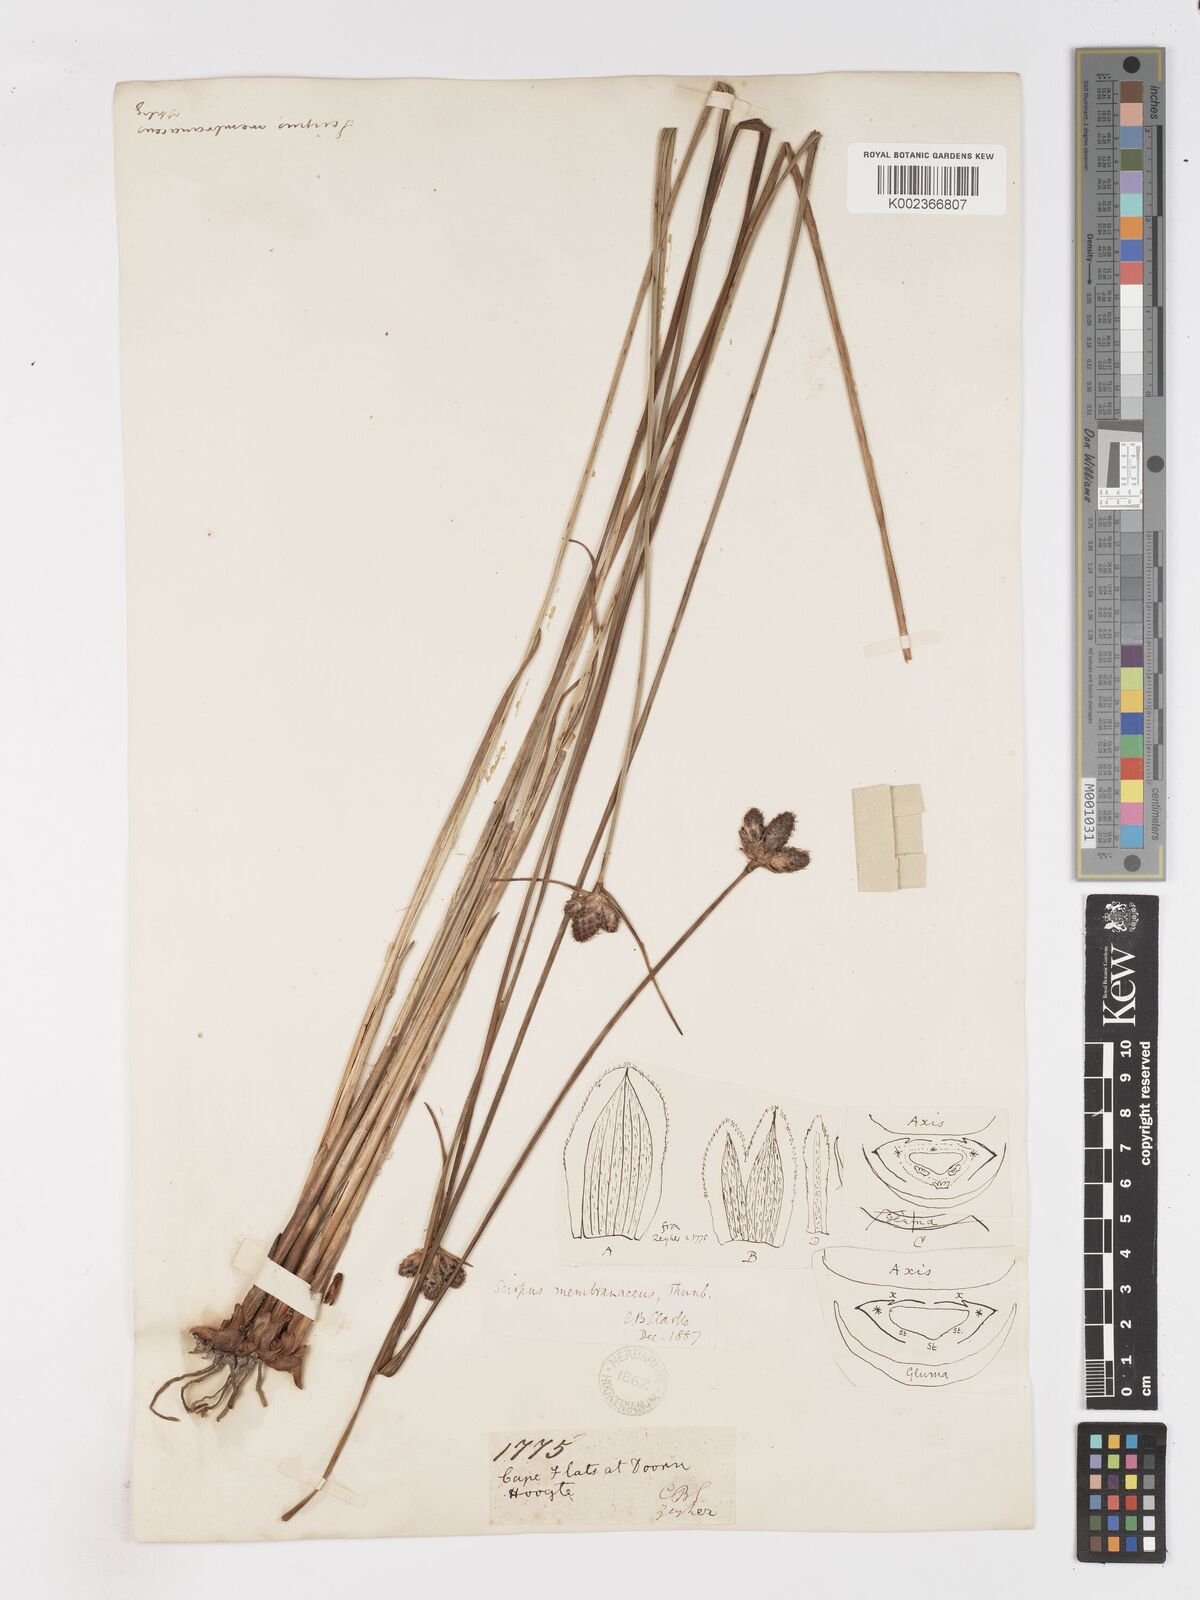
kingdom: Plantae
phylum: Tracheophyta
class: Liliopsida
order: Poales
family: Cyperaceae
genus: Hellmuthia
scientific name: Hellmuthia membranacea
